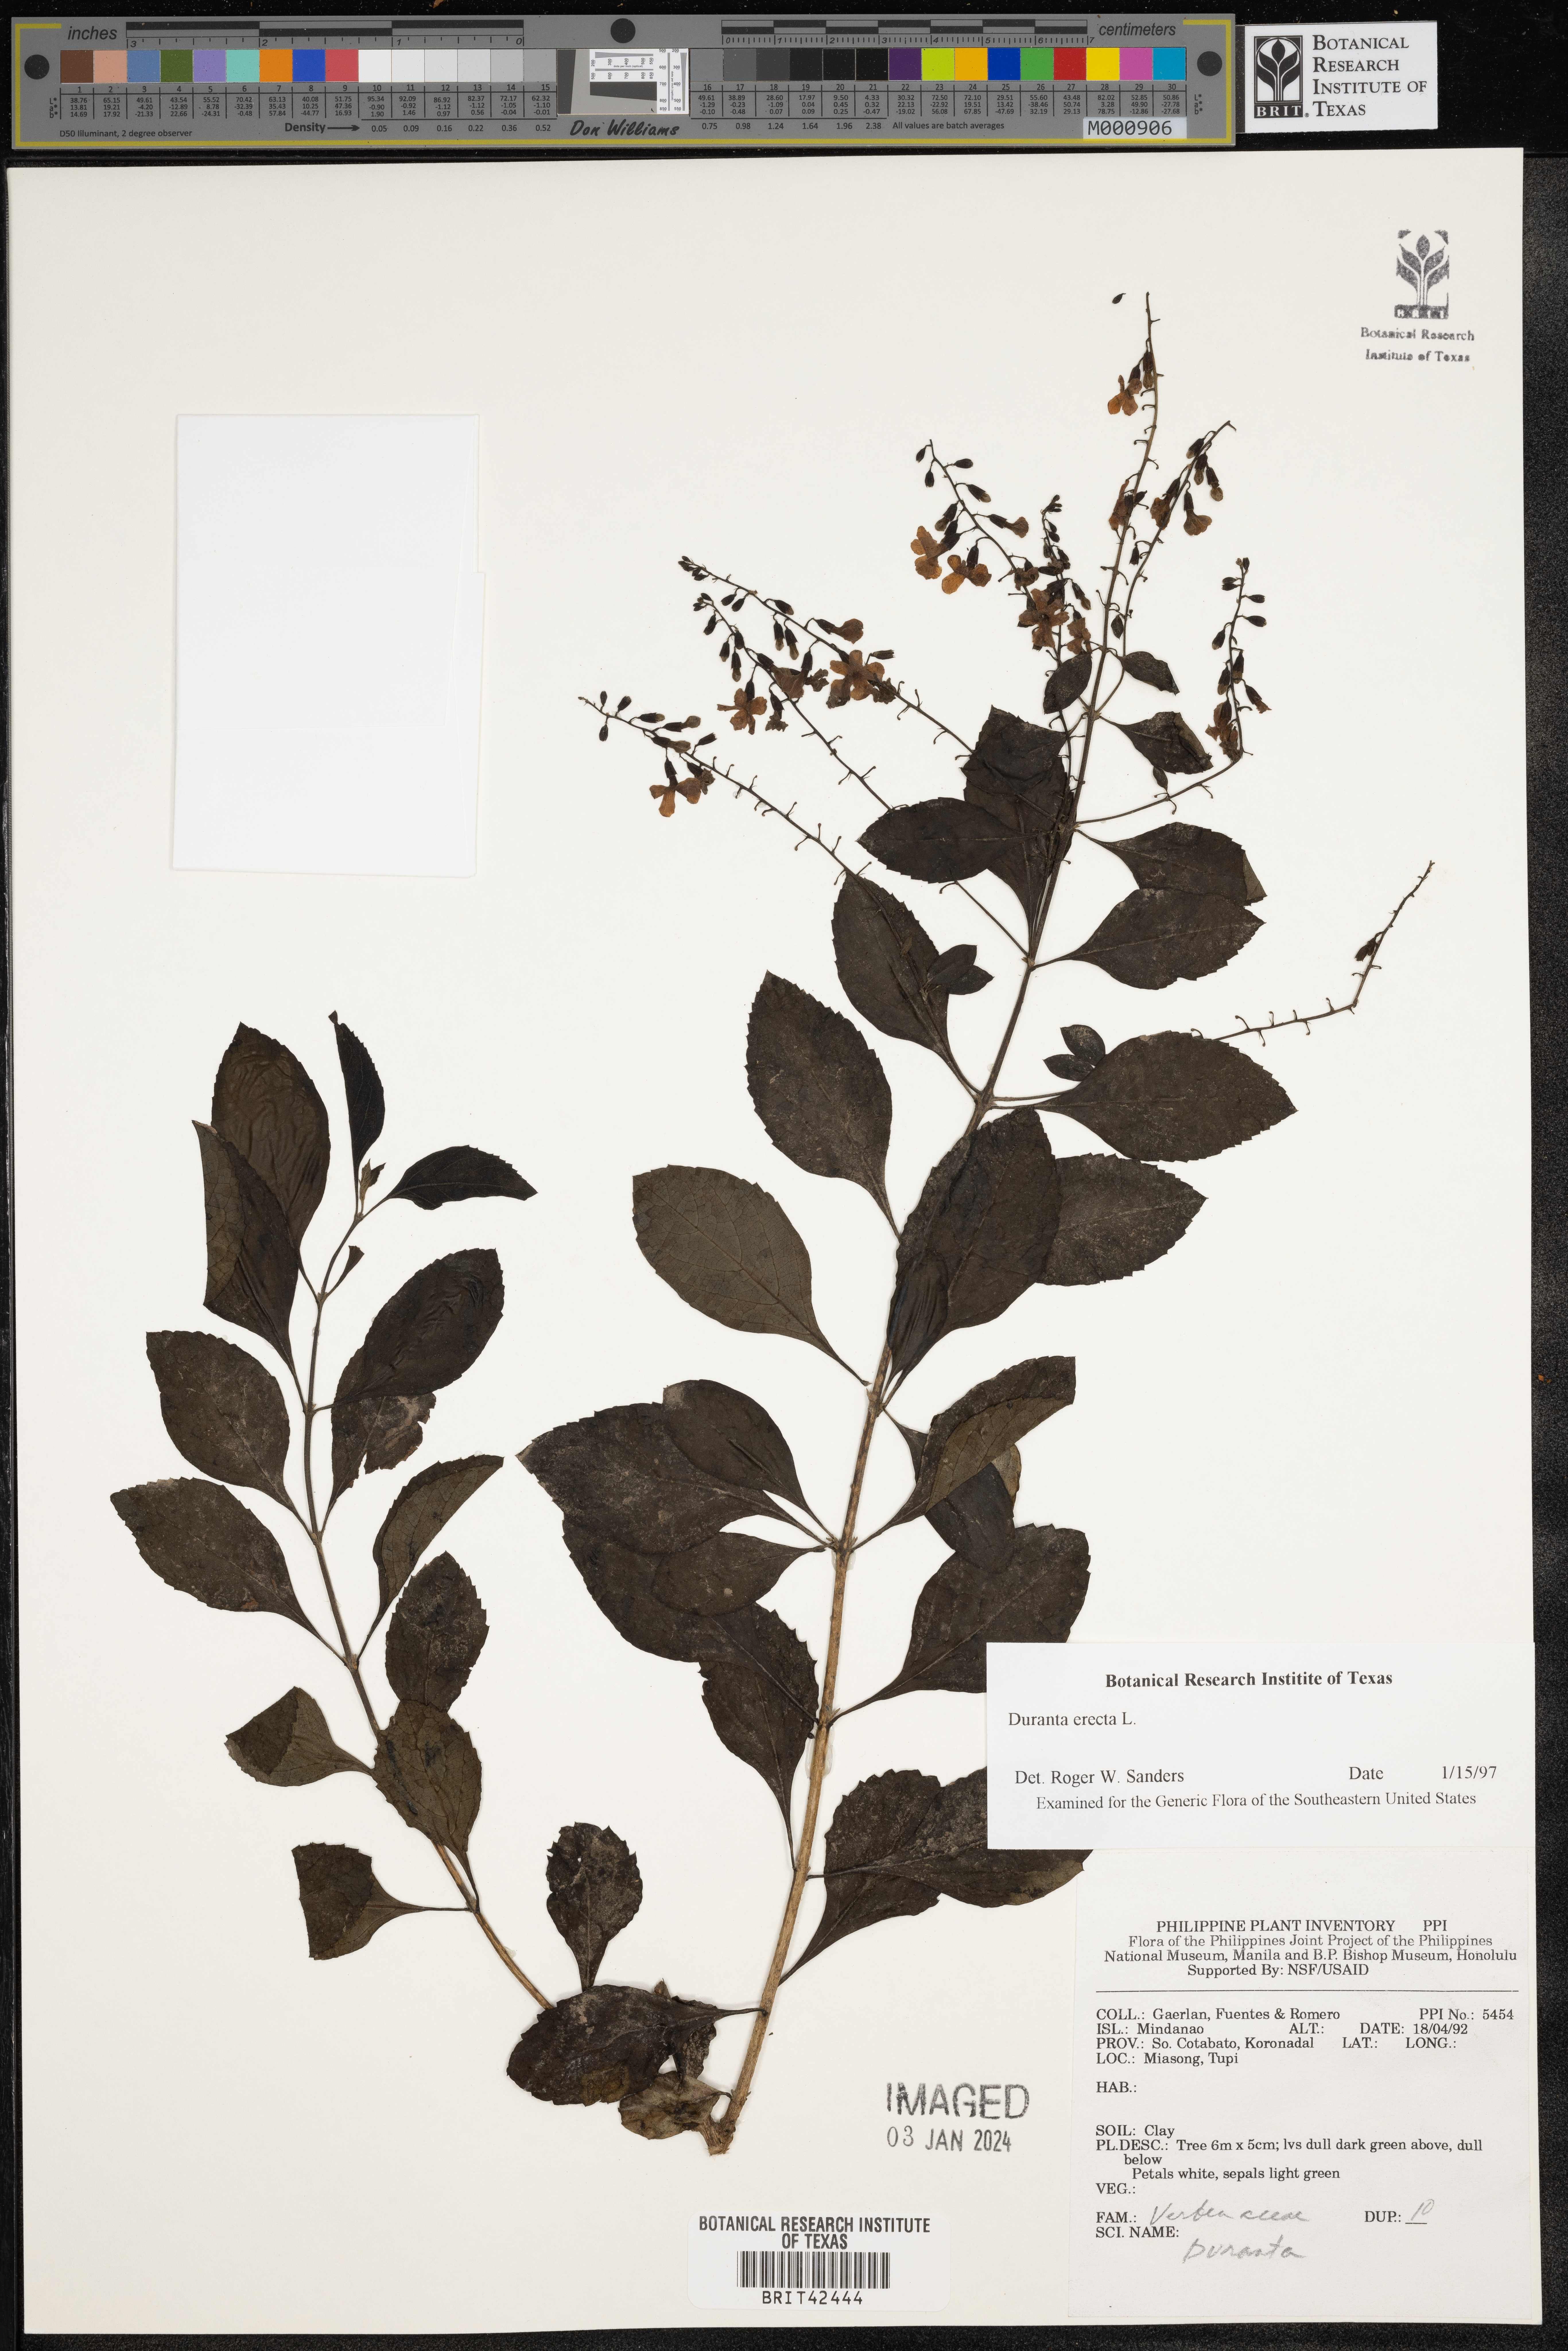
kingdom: Plantae
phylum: Tracheophyta
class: Magnoliopsida
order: Lamiales
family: Verbenaceae
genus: Duranta
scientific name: Duranta erecta
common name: Golden dewdrops
